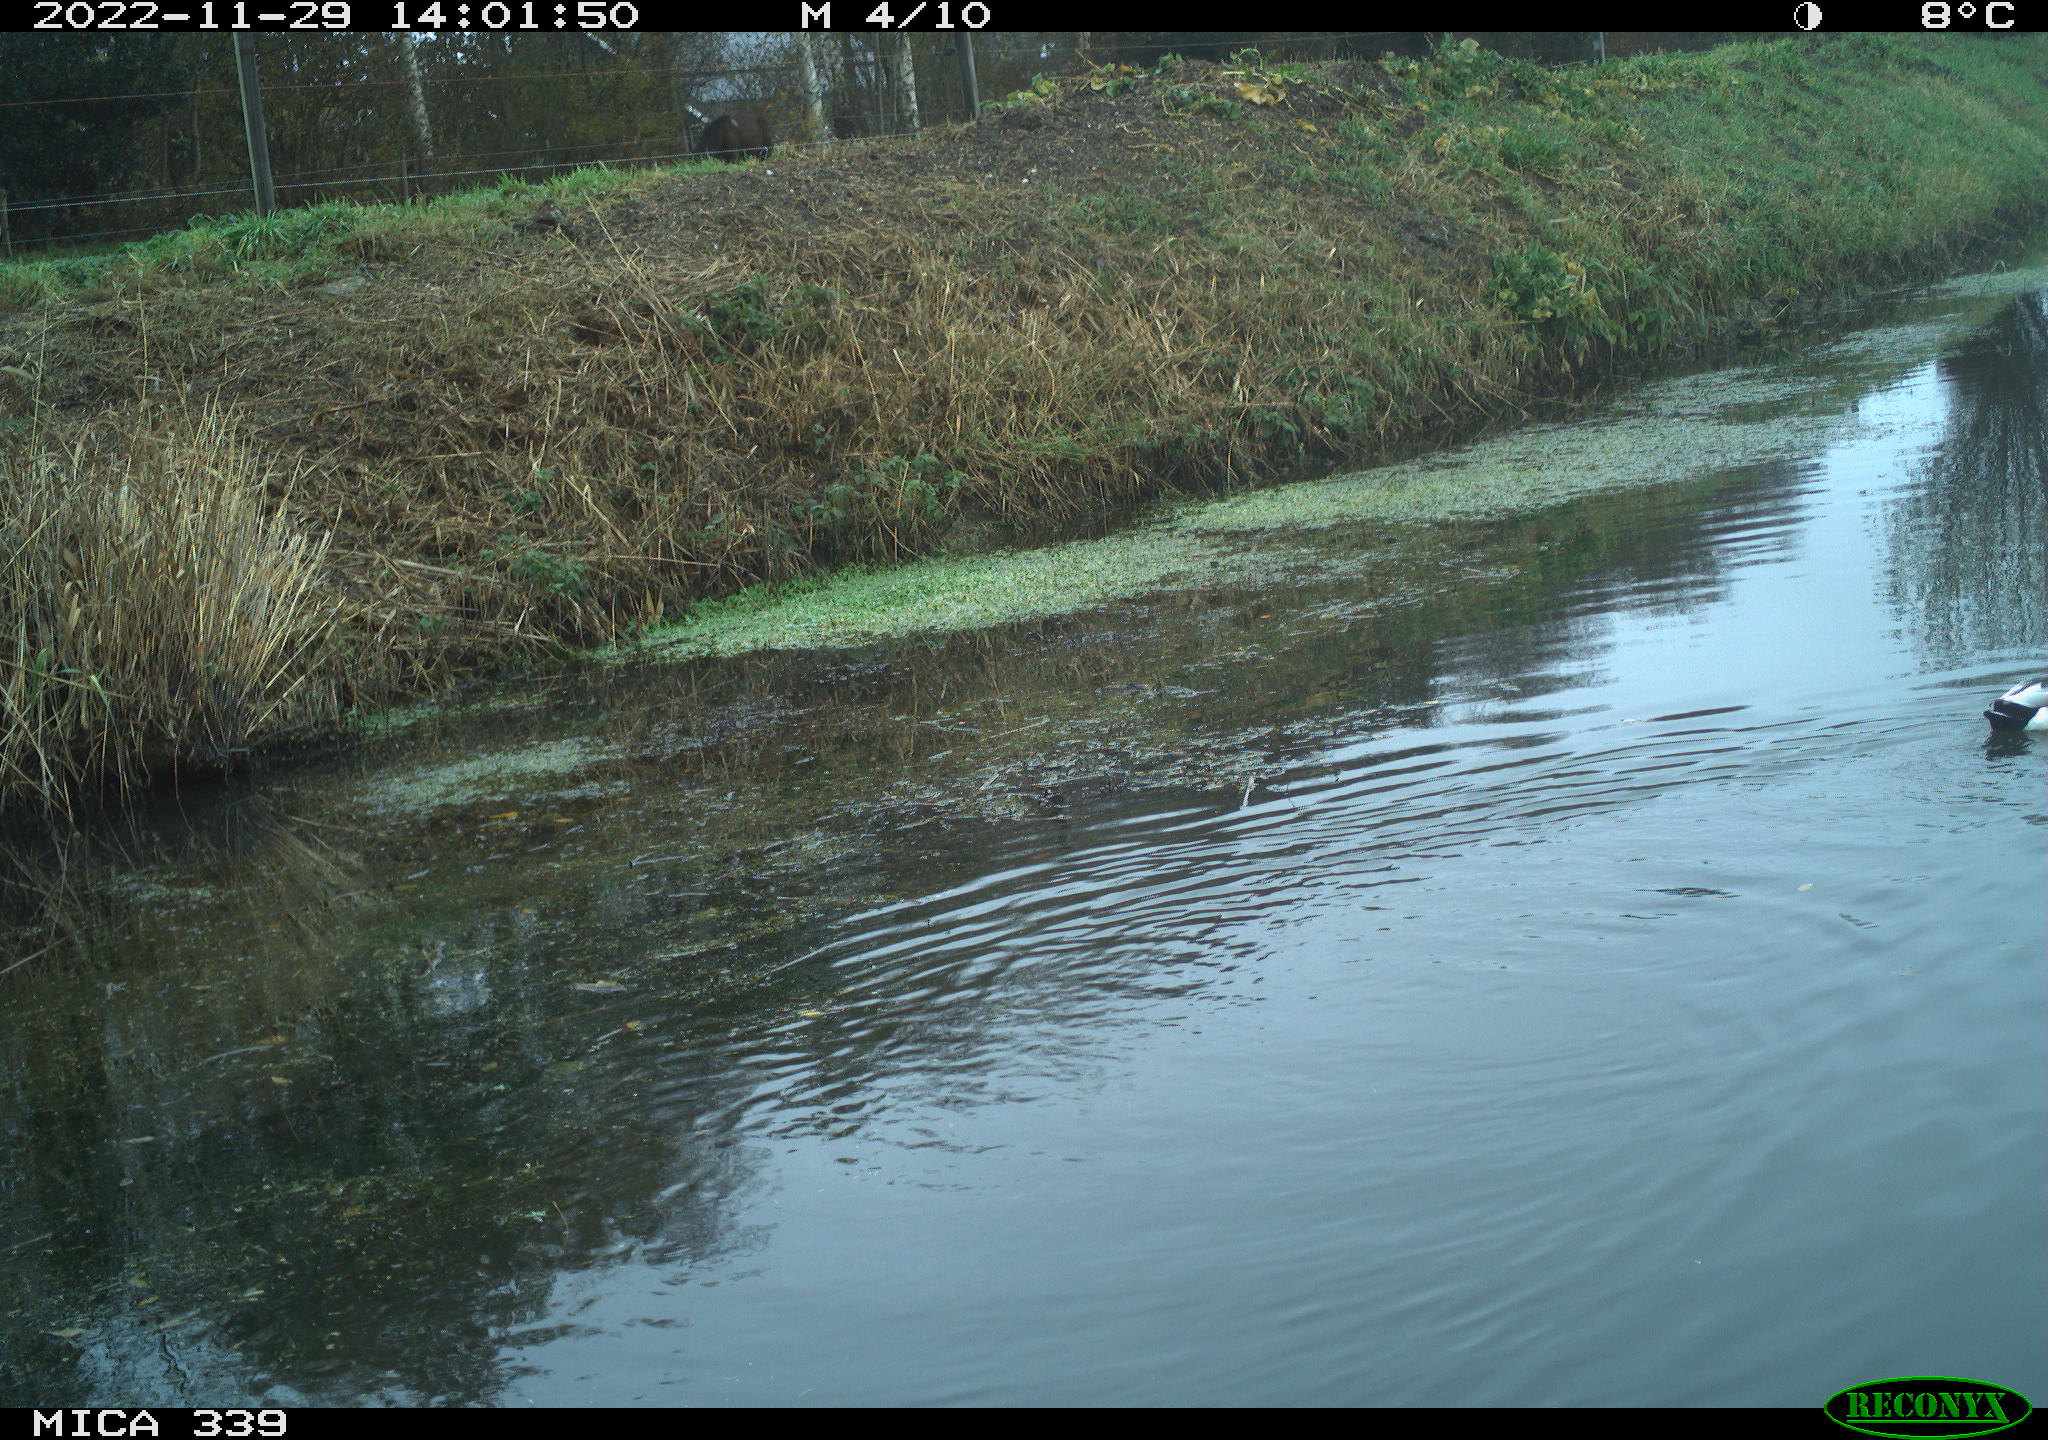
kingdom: Animalia
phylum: Chordata
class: Aves
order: Anseriformes
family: Anatidae
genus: Anas
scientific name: Anas
